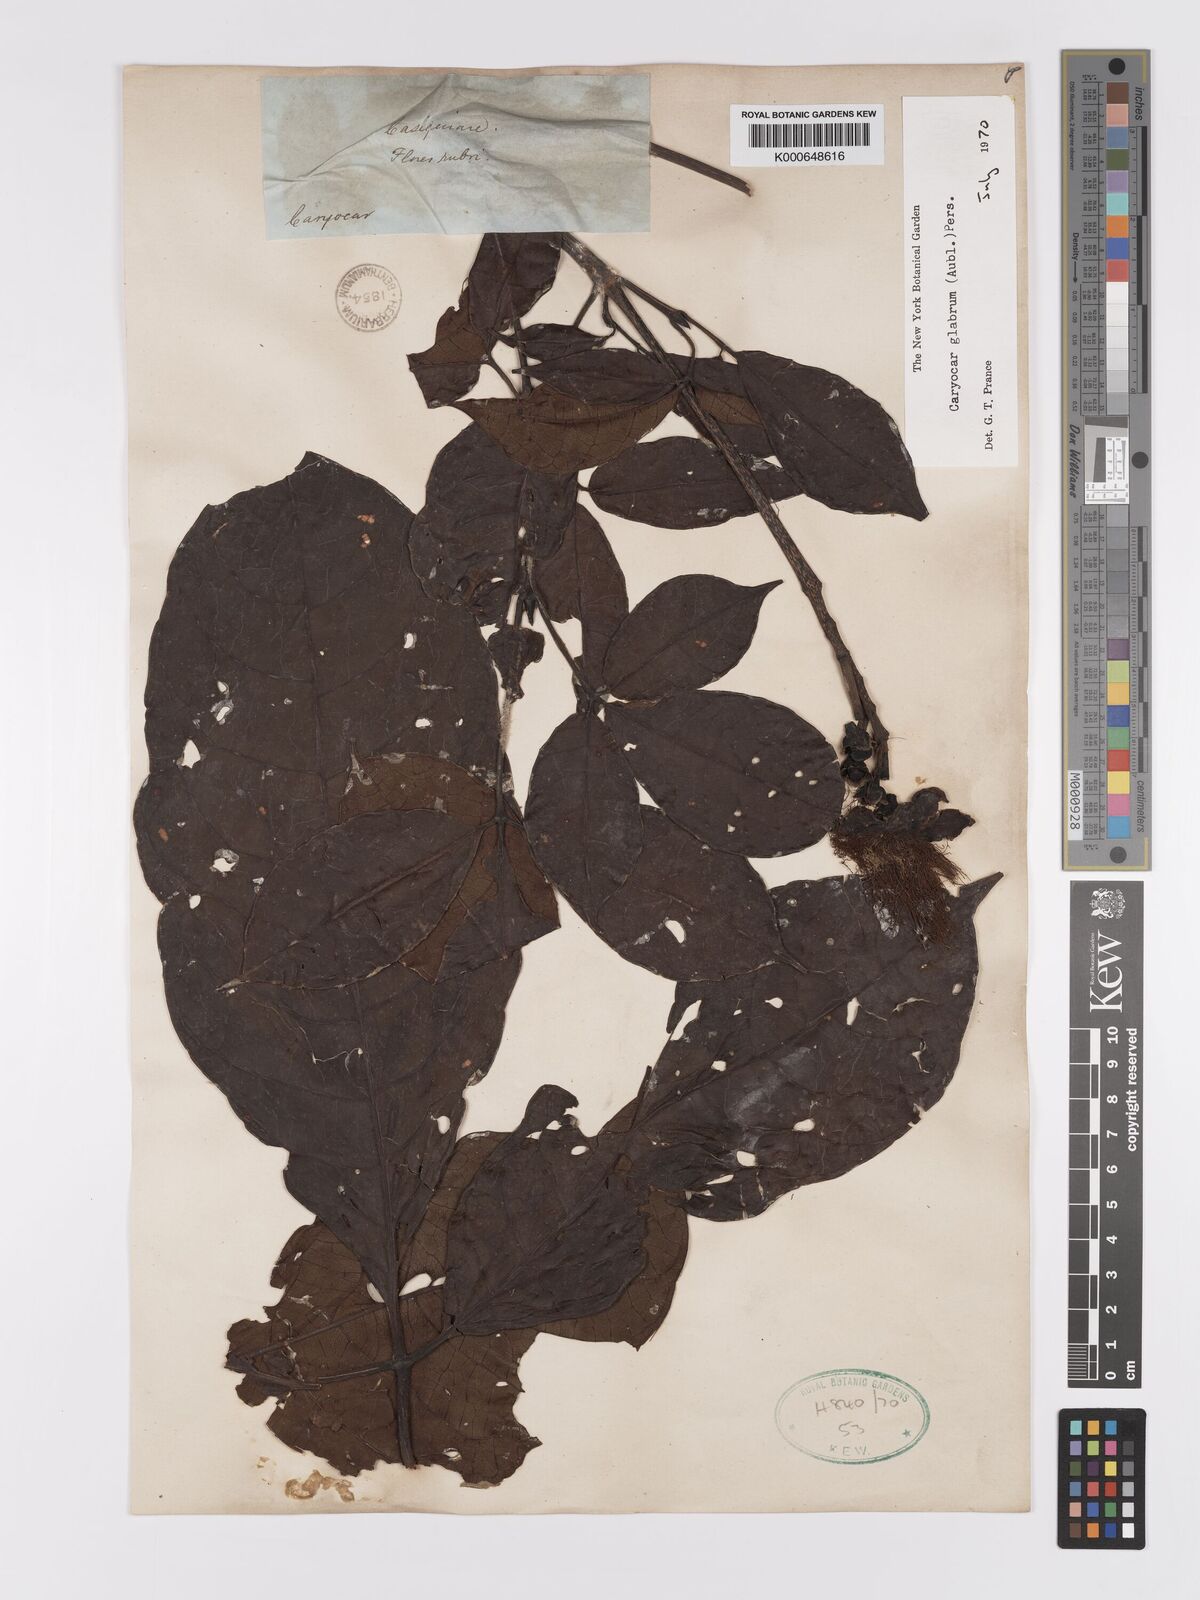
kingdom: Plantae
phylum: Tracheophyta
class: Magnoliopsida
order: Malpighiales
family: Caryocaraceae
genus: Caryocar
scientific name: Caryocar
